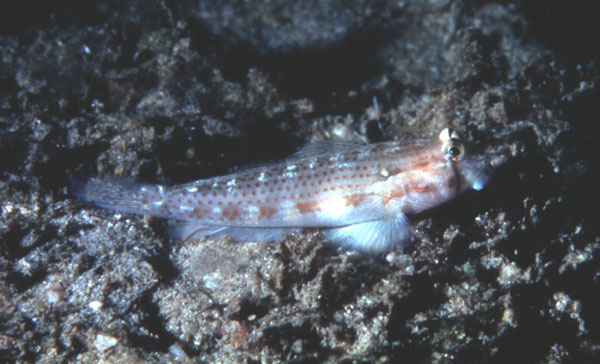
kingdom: Animalia
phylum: Chordata
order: Perciformes
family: Gobiidae
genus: Gnatholepis
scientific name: Gnatholepis cauerensis
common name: Bridled goby
